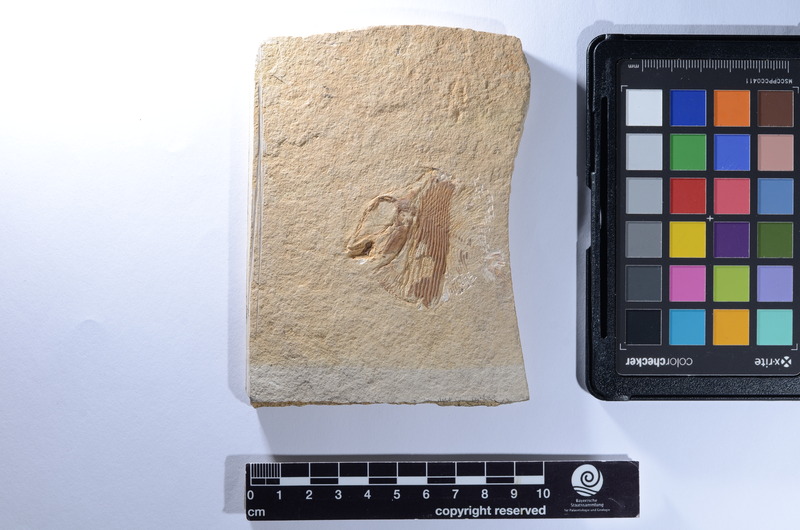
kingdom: Animalia
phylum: Chordata
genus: Apomesodon
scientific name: Apomesodon gibbosus
